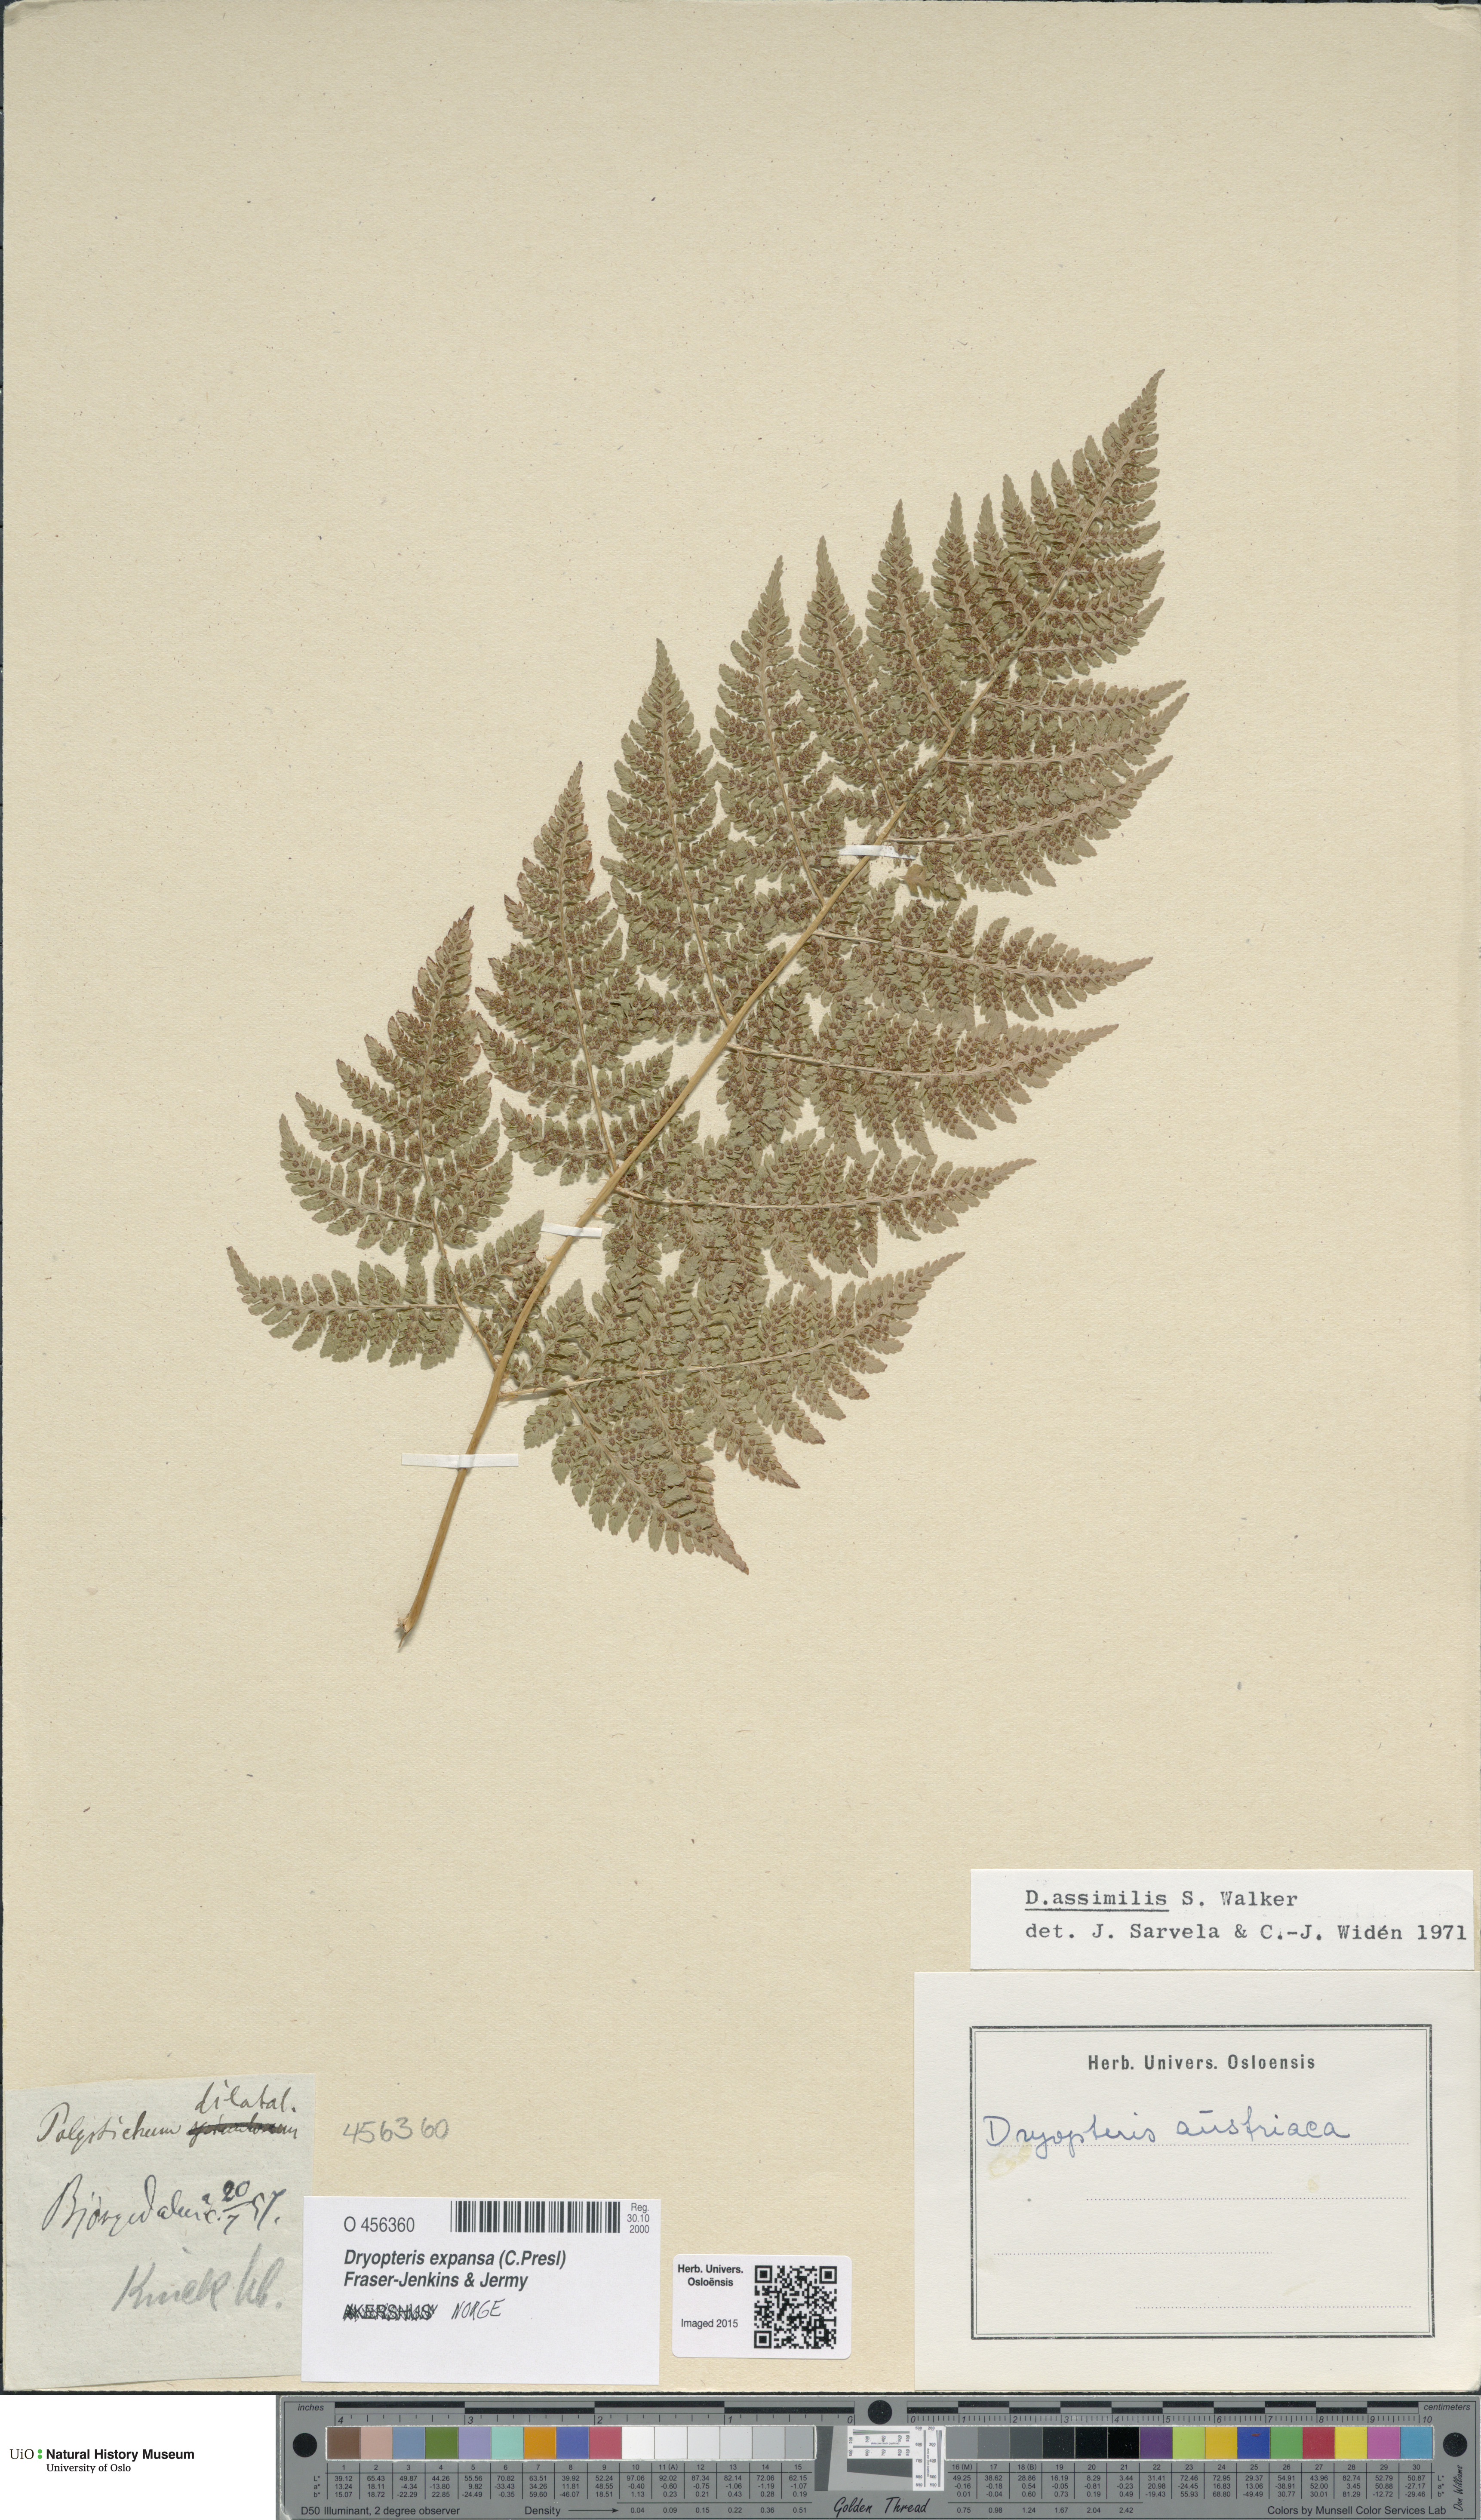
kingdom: Plantae
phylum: Tracheophyta
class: Polypodiopsida
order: Polypodiales
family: Dryopteridaceae
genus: Dryopteris
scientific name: Dryopteris expansa
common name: Northern buckler fern
